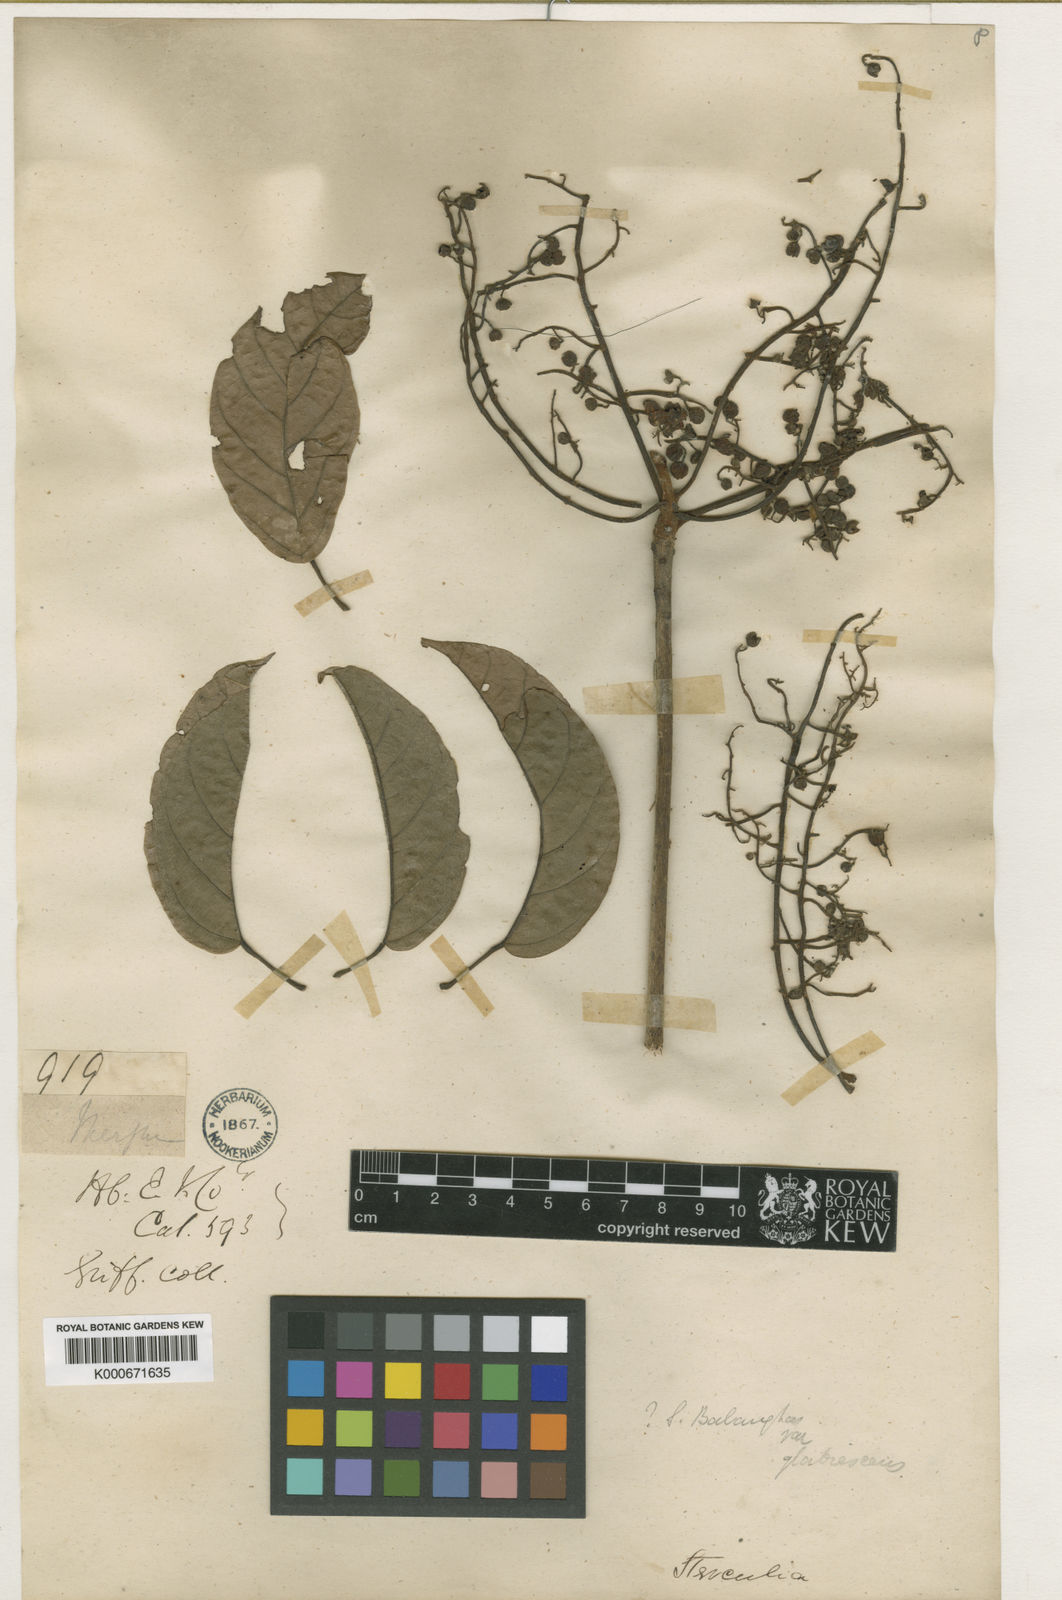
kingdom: Plantae
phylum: Tracheophyta
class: Magnoliopsida
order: Malvales
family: Malvaceae
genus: Sterculia
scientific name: Sterculia balanghas
